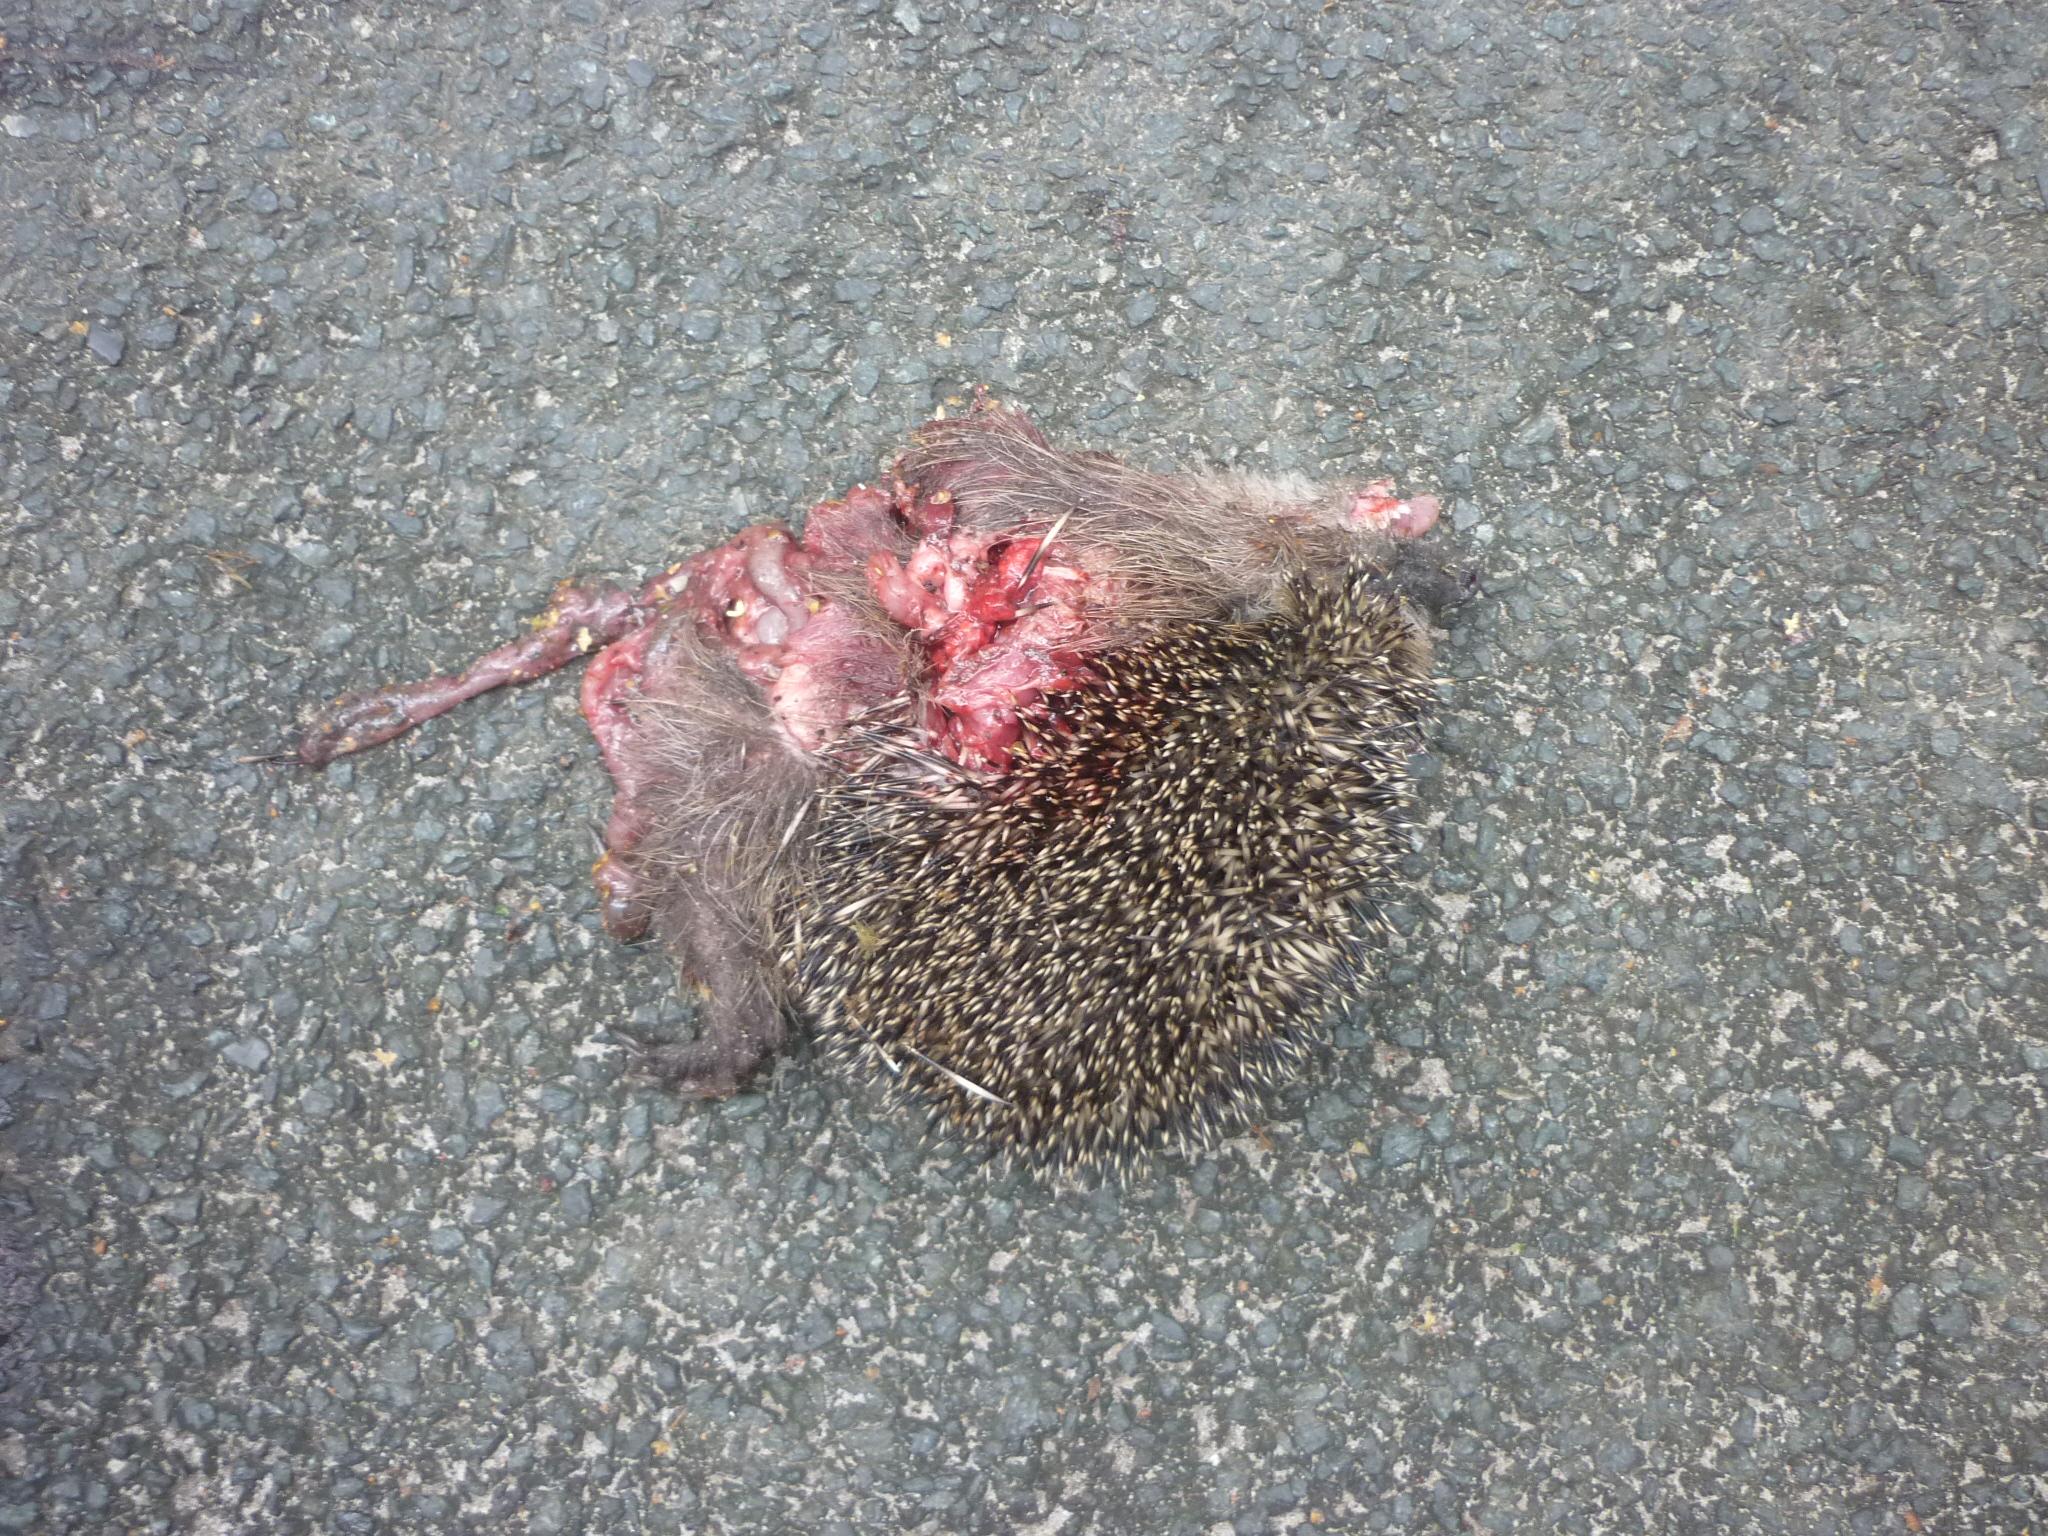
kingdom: Animalia
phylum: Chordata
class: Mammalia
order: Erinaceomorpha
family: Erinaceidae
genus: Erinaceus
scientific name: Erinaceus
